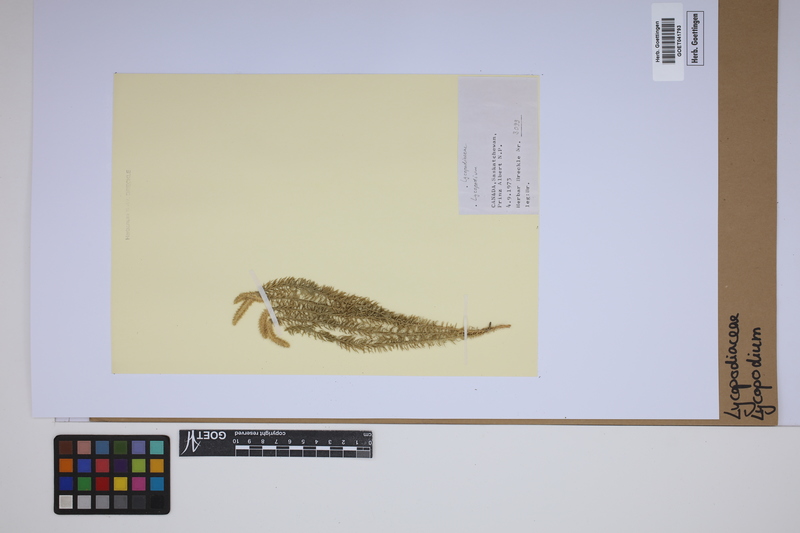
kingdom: Plantae
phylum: Tracheophyta
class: Lycopodiopsida
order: Lycopodiales
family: Lycopodiaceae
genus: Lycopodium
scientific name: Lycopodium
